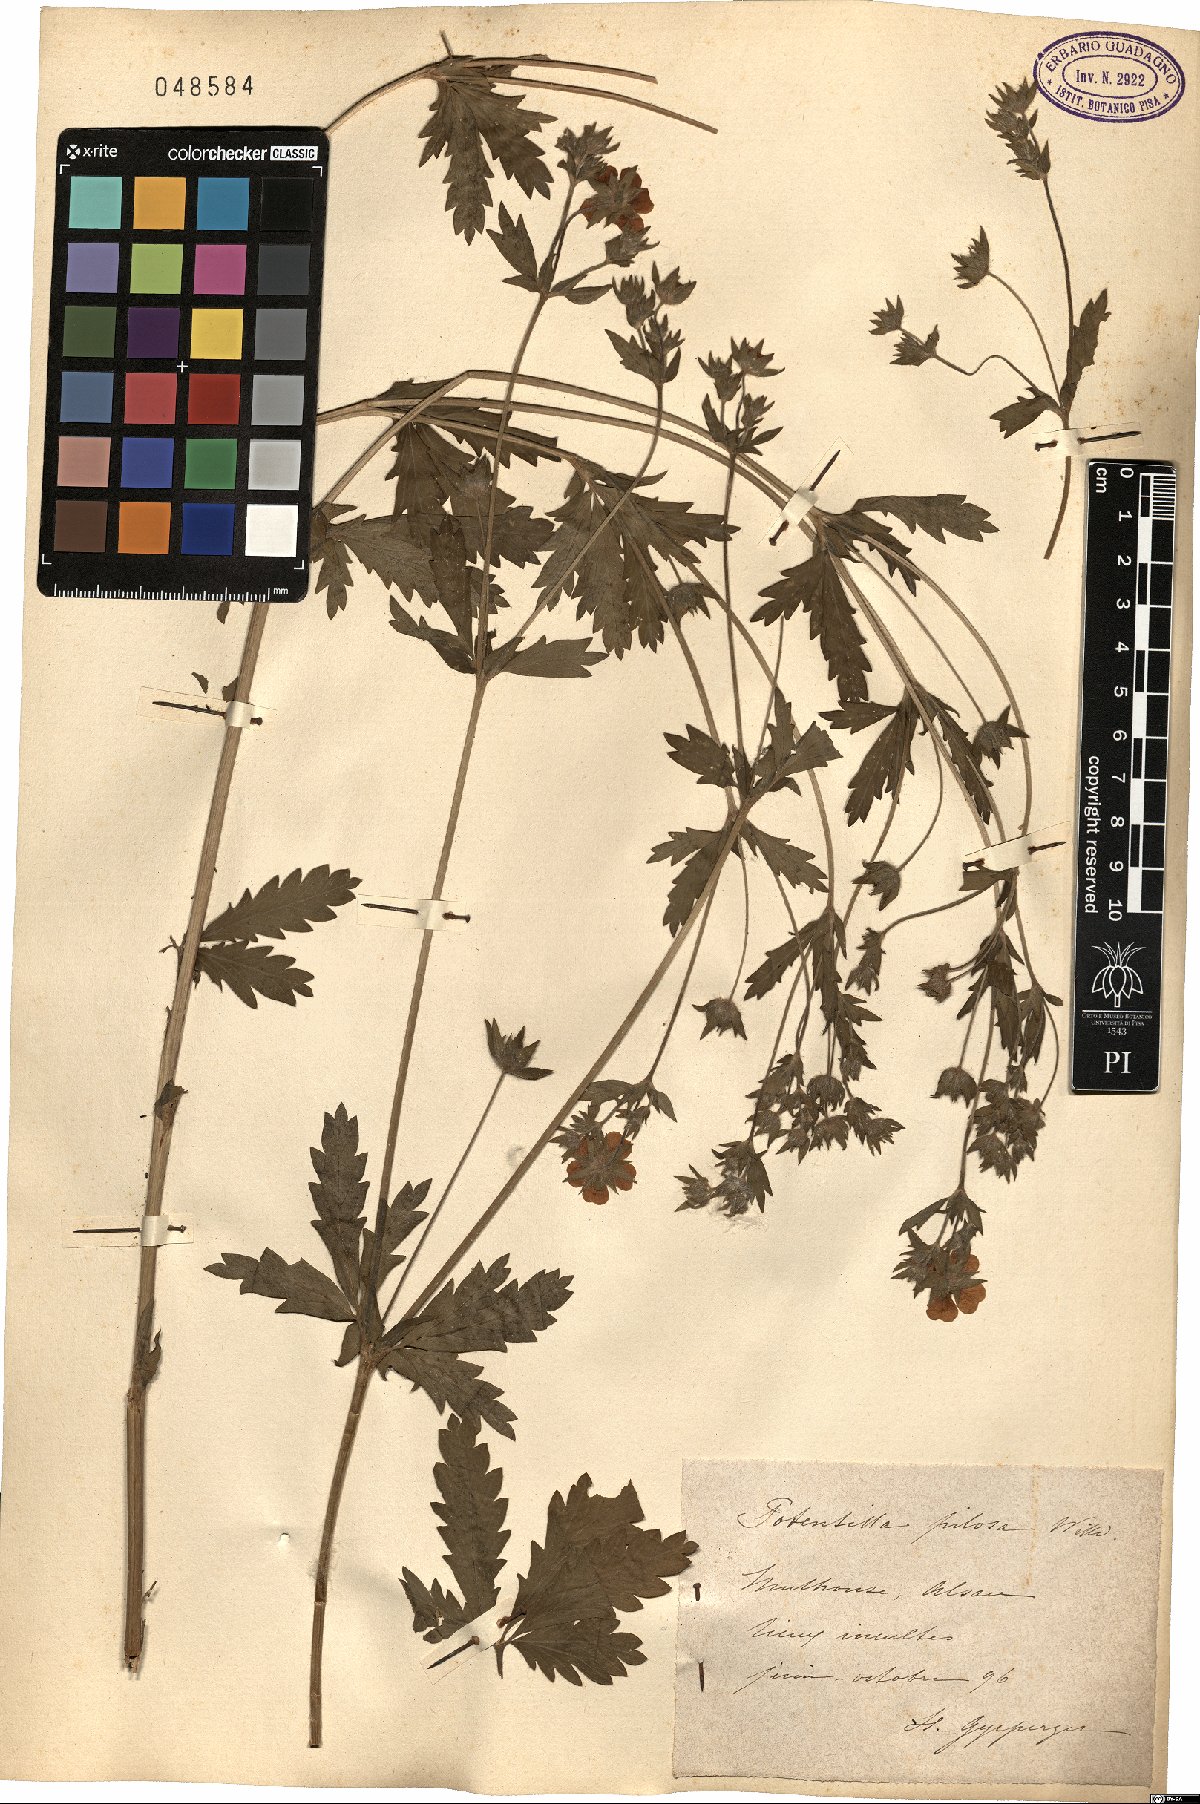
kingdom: Plantae
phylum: Tracheophyta
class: Magnoliopsida
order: Rosales
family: Rosaceae
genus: Potentilla
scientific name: Potentilla recta
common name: Sulphur cinquefoil
